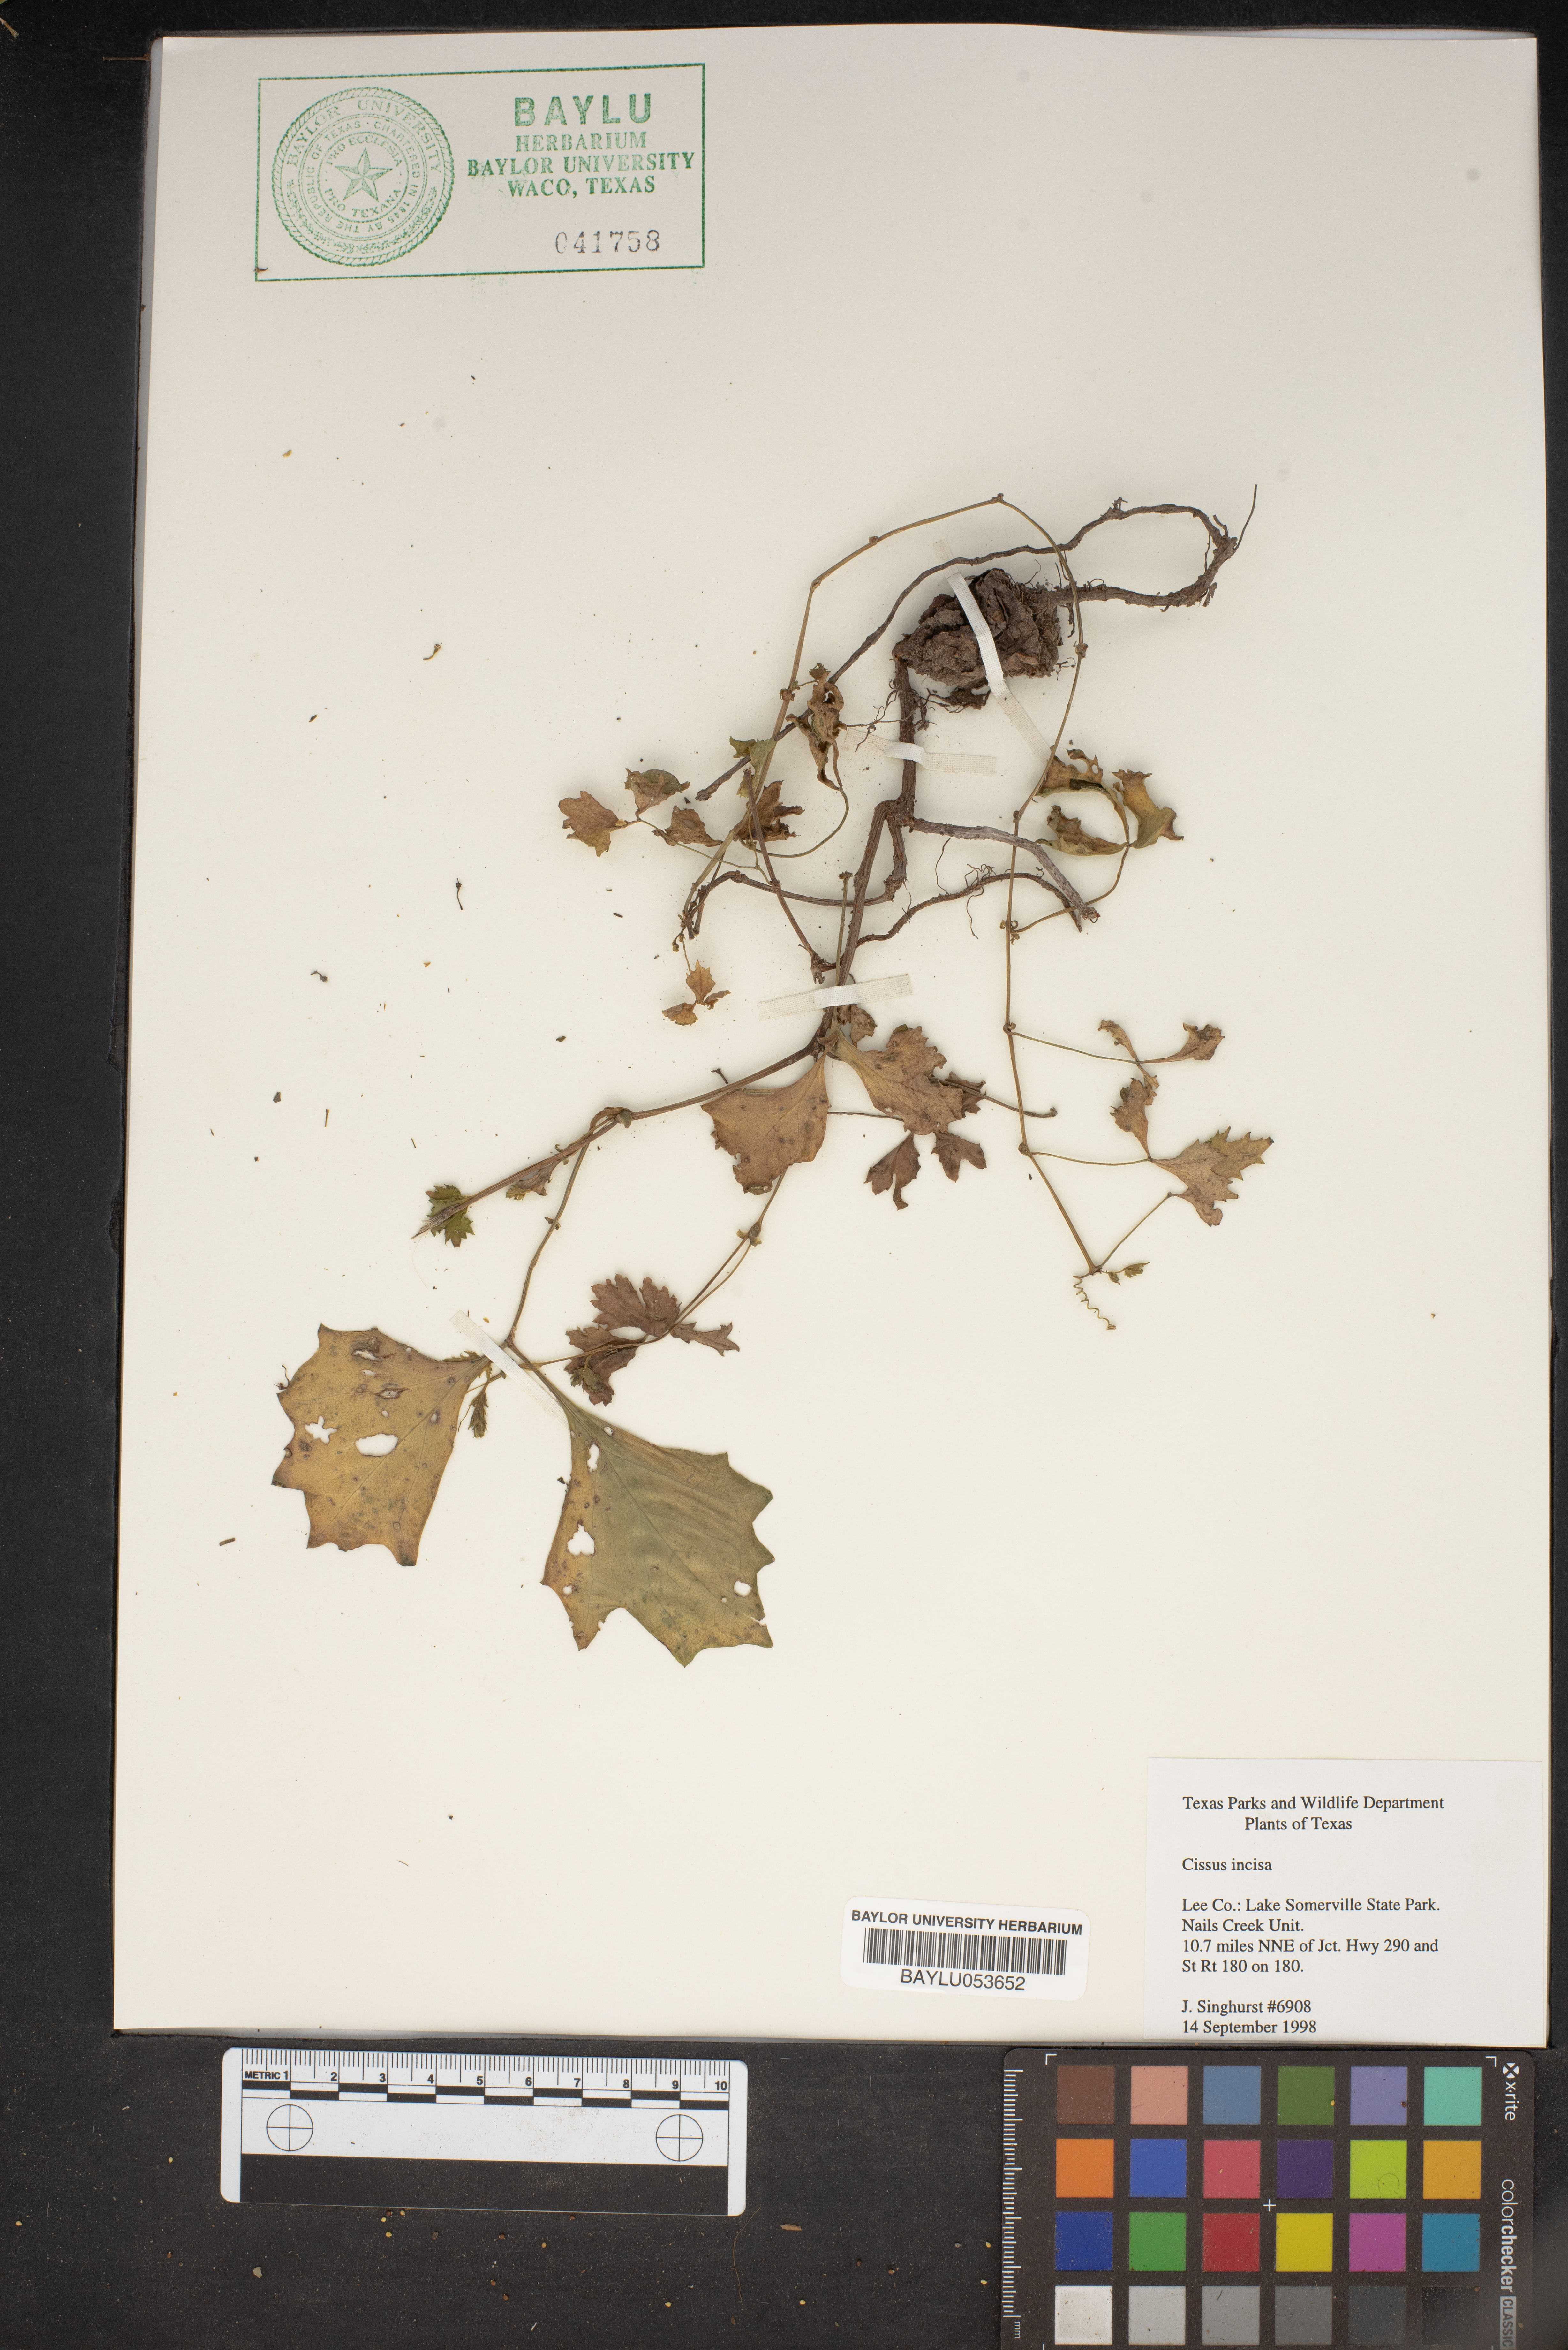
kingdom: Plantae
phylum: Tracheophyta
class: Magnoliopsida
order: Vitales
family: Vitaceae
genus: Cissus
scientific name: Cissus trifoliata
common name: Vine-sorrel
